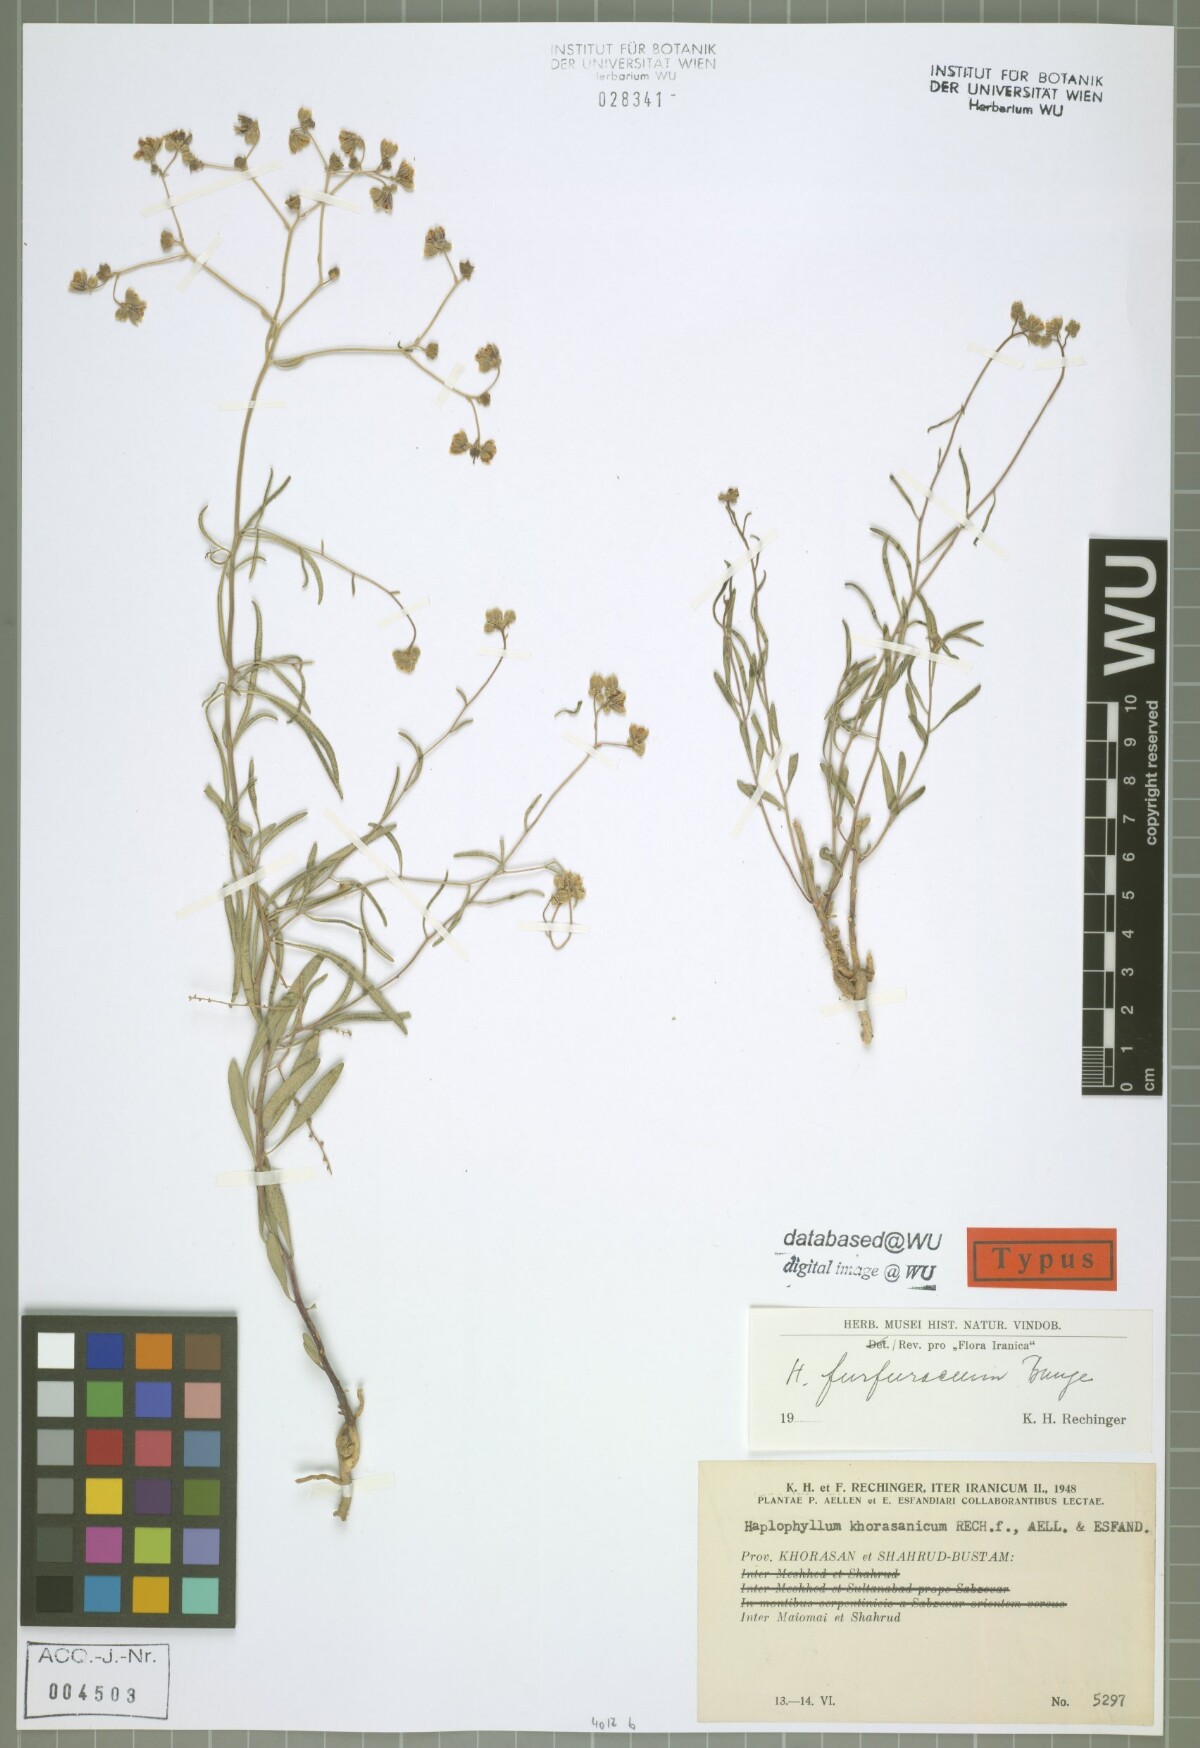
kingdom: Plantae
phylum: Tracheophyta
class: Magnoliopsida
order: Sapindales
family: Rutaceae
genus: Haplophyllum
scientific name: Haplophyllum furfuraceum
